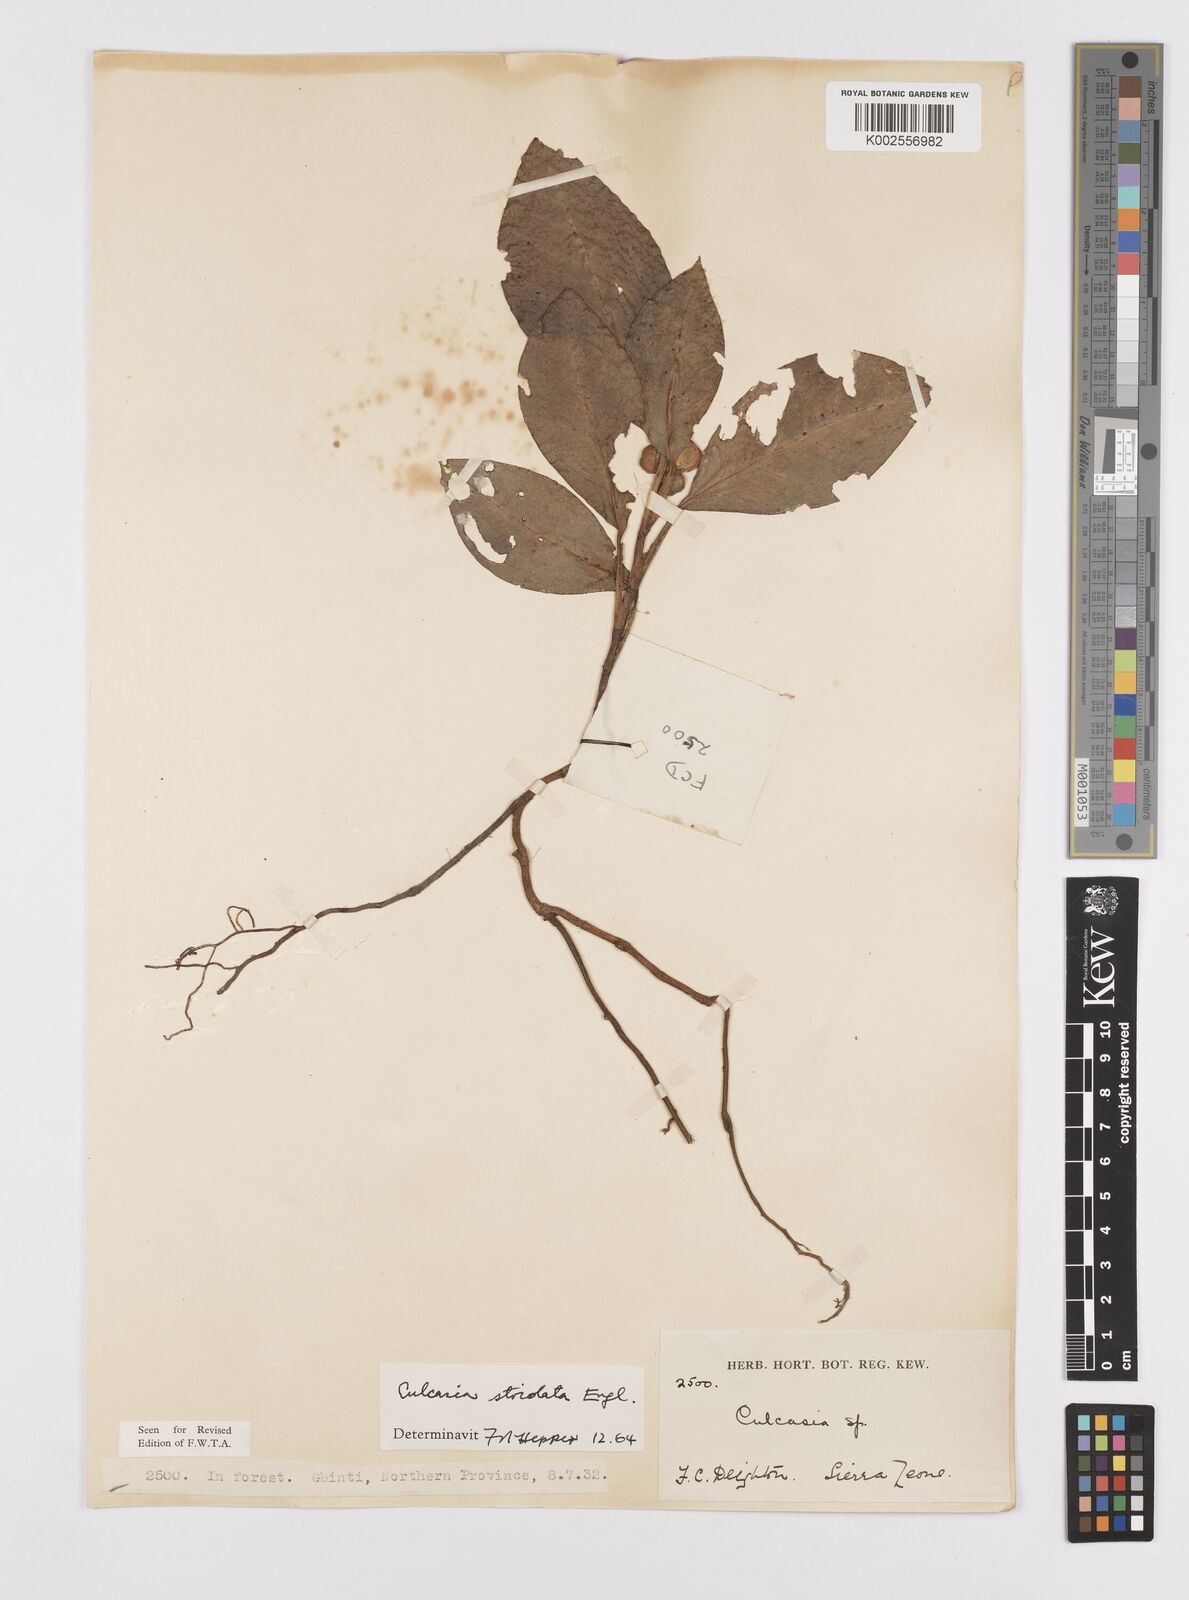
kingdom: Plantae
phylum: Tracheophyta
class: Liliopsida
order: Alismatales
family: Araceae
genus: Culcasia
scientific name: Culcasia striolata
